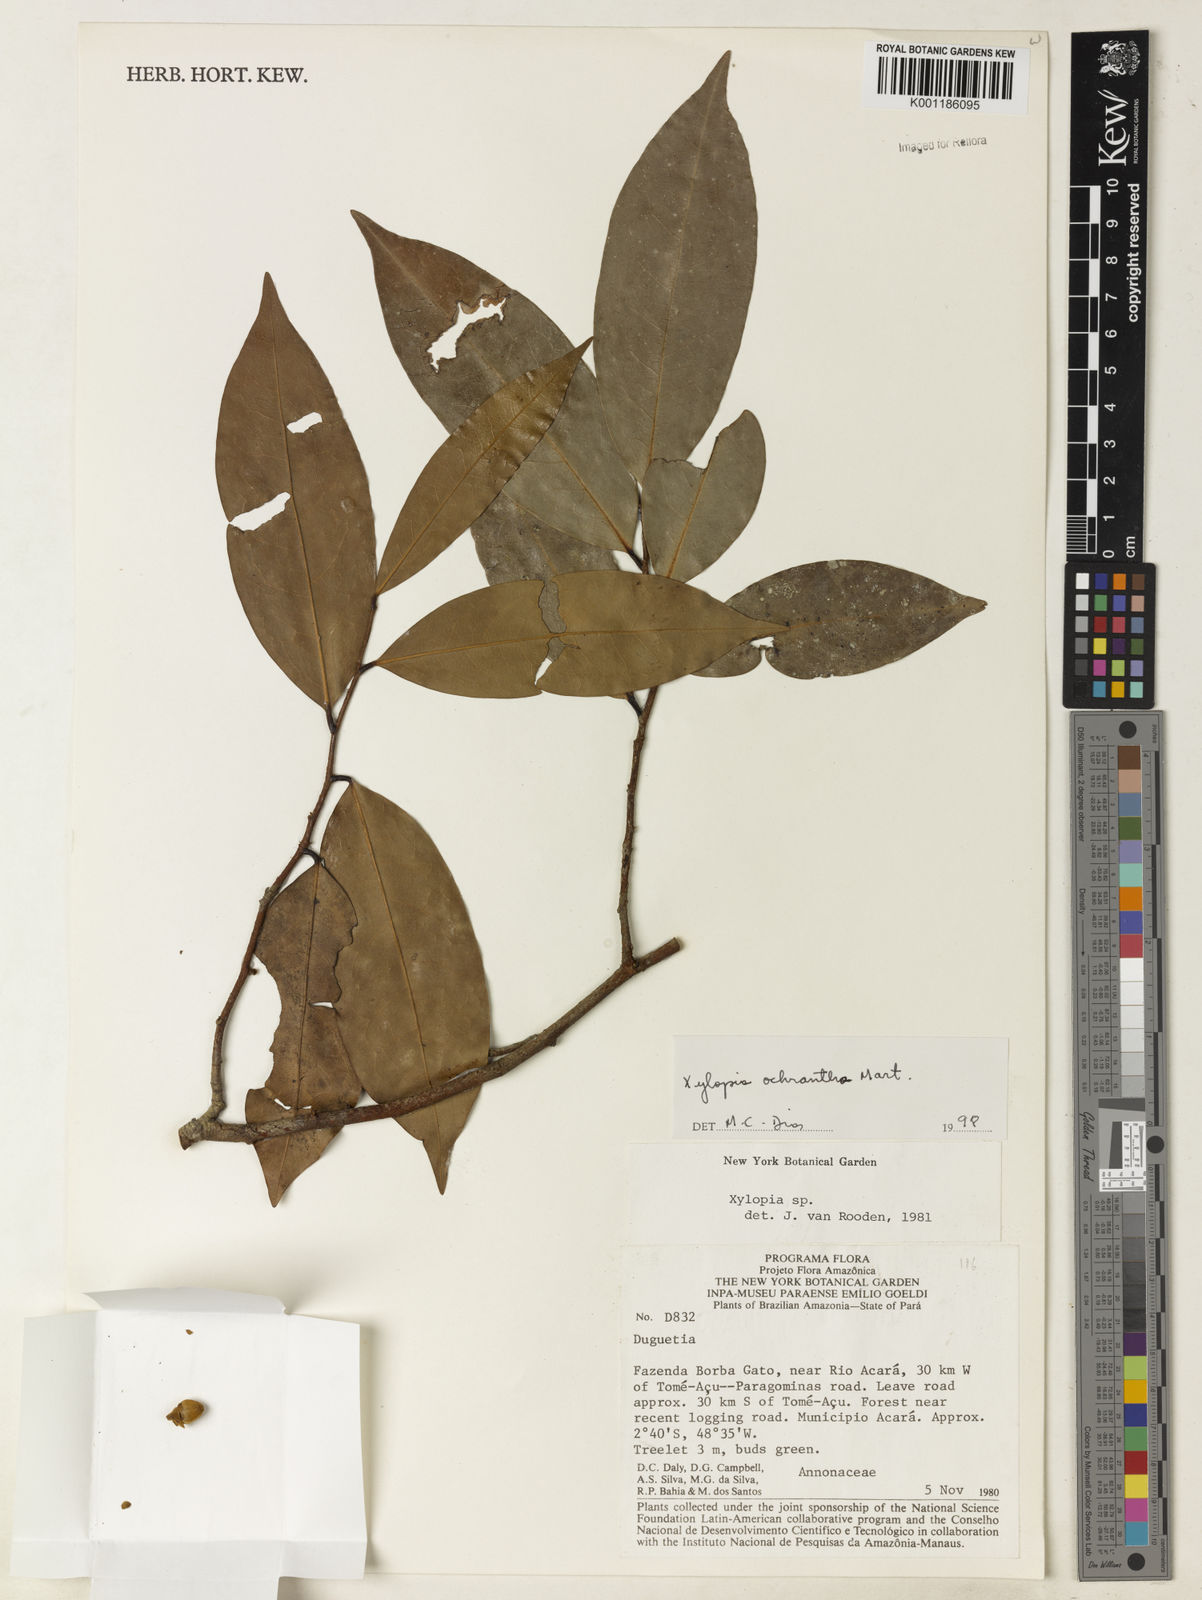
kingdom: Plantae
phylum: Tracheophyta
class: Magnoliopsida
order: Magnoliales
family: Annonaceae
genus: Xylopia
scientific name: Xylopia ochrantha
